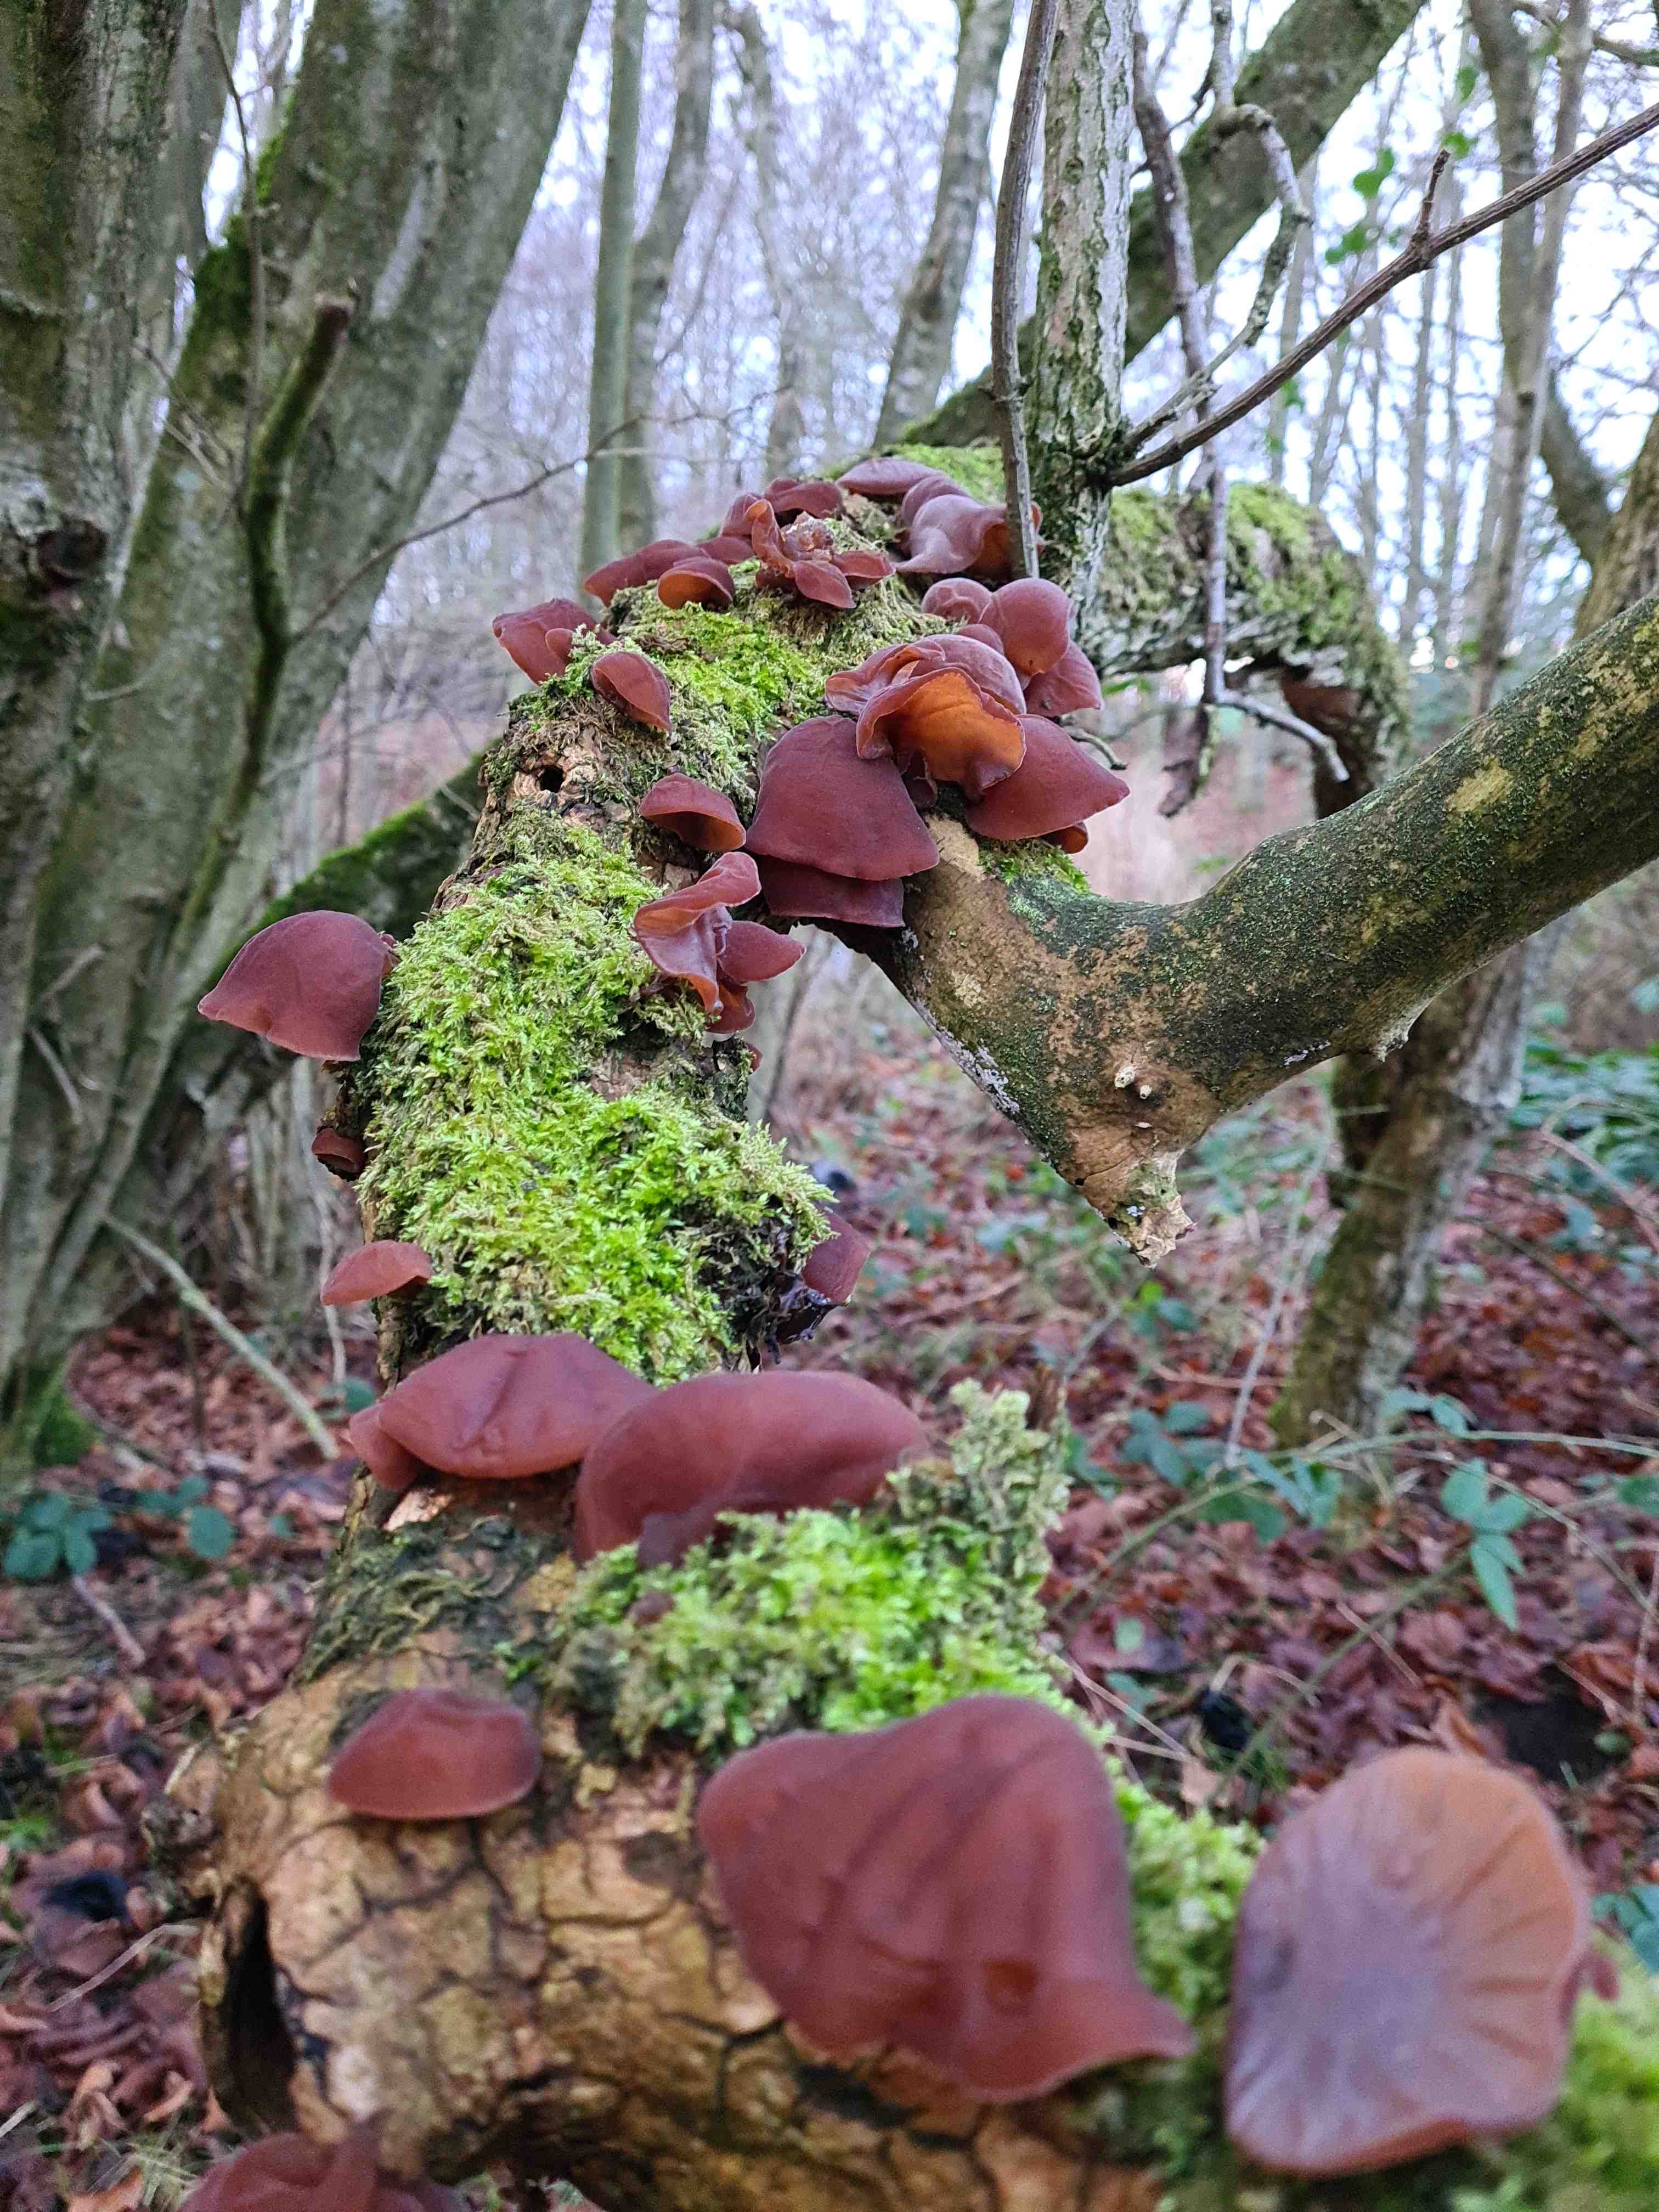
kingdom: Fungi
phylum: Basidiomycota
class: Agaricomycetes
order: Auriculariales
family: Auriculariaceae
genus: Auricularia
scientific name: Auricularia auricula-judae
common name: almindelig judasøre
